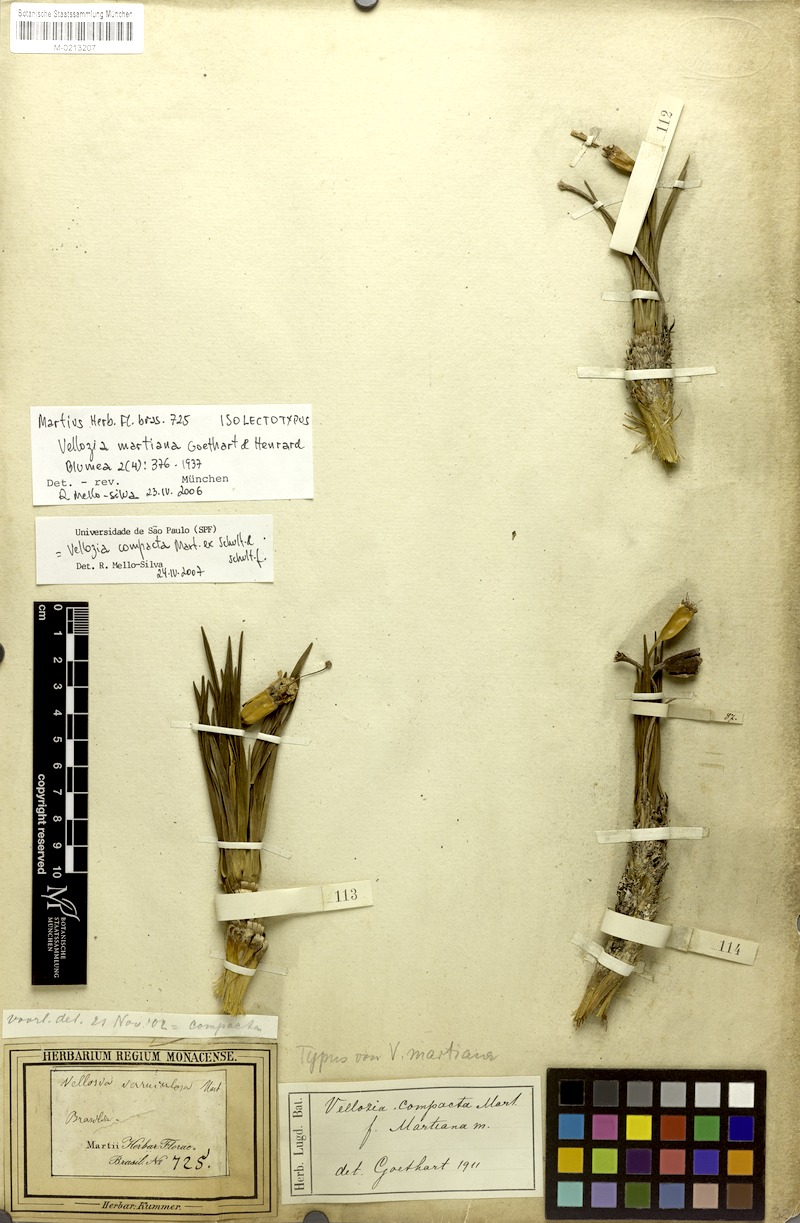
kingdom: Plantae
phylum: Tracheophyta
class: Liliopsida
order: Pandanales
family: Velloziaceae
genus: Vellozia
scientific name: Vellozia compacta
